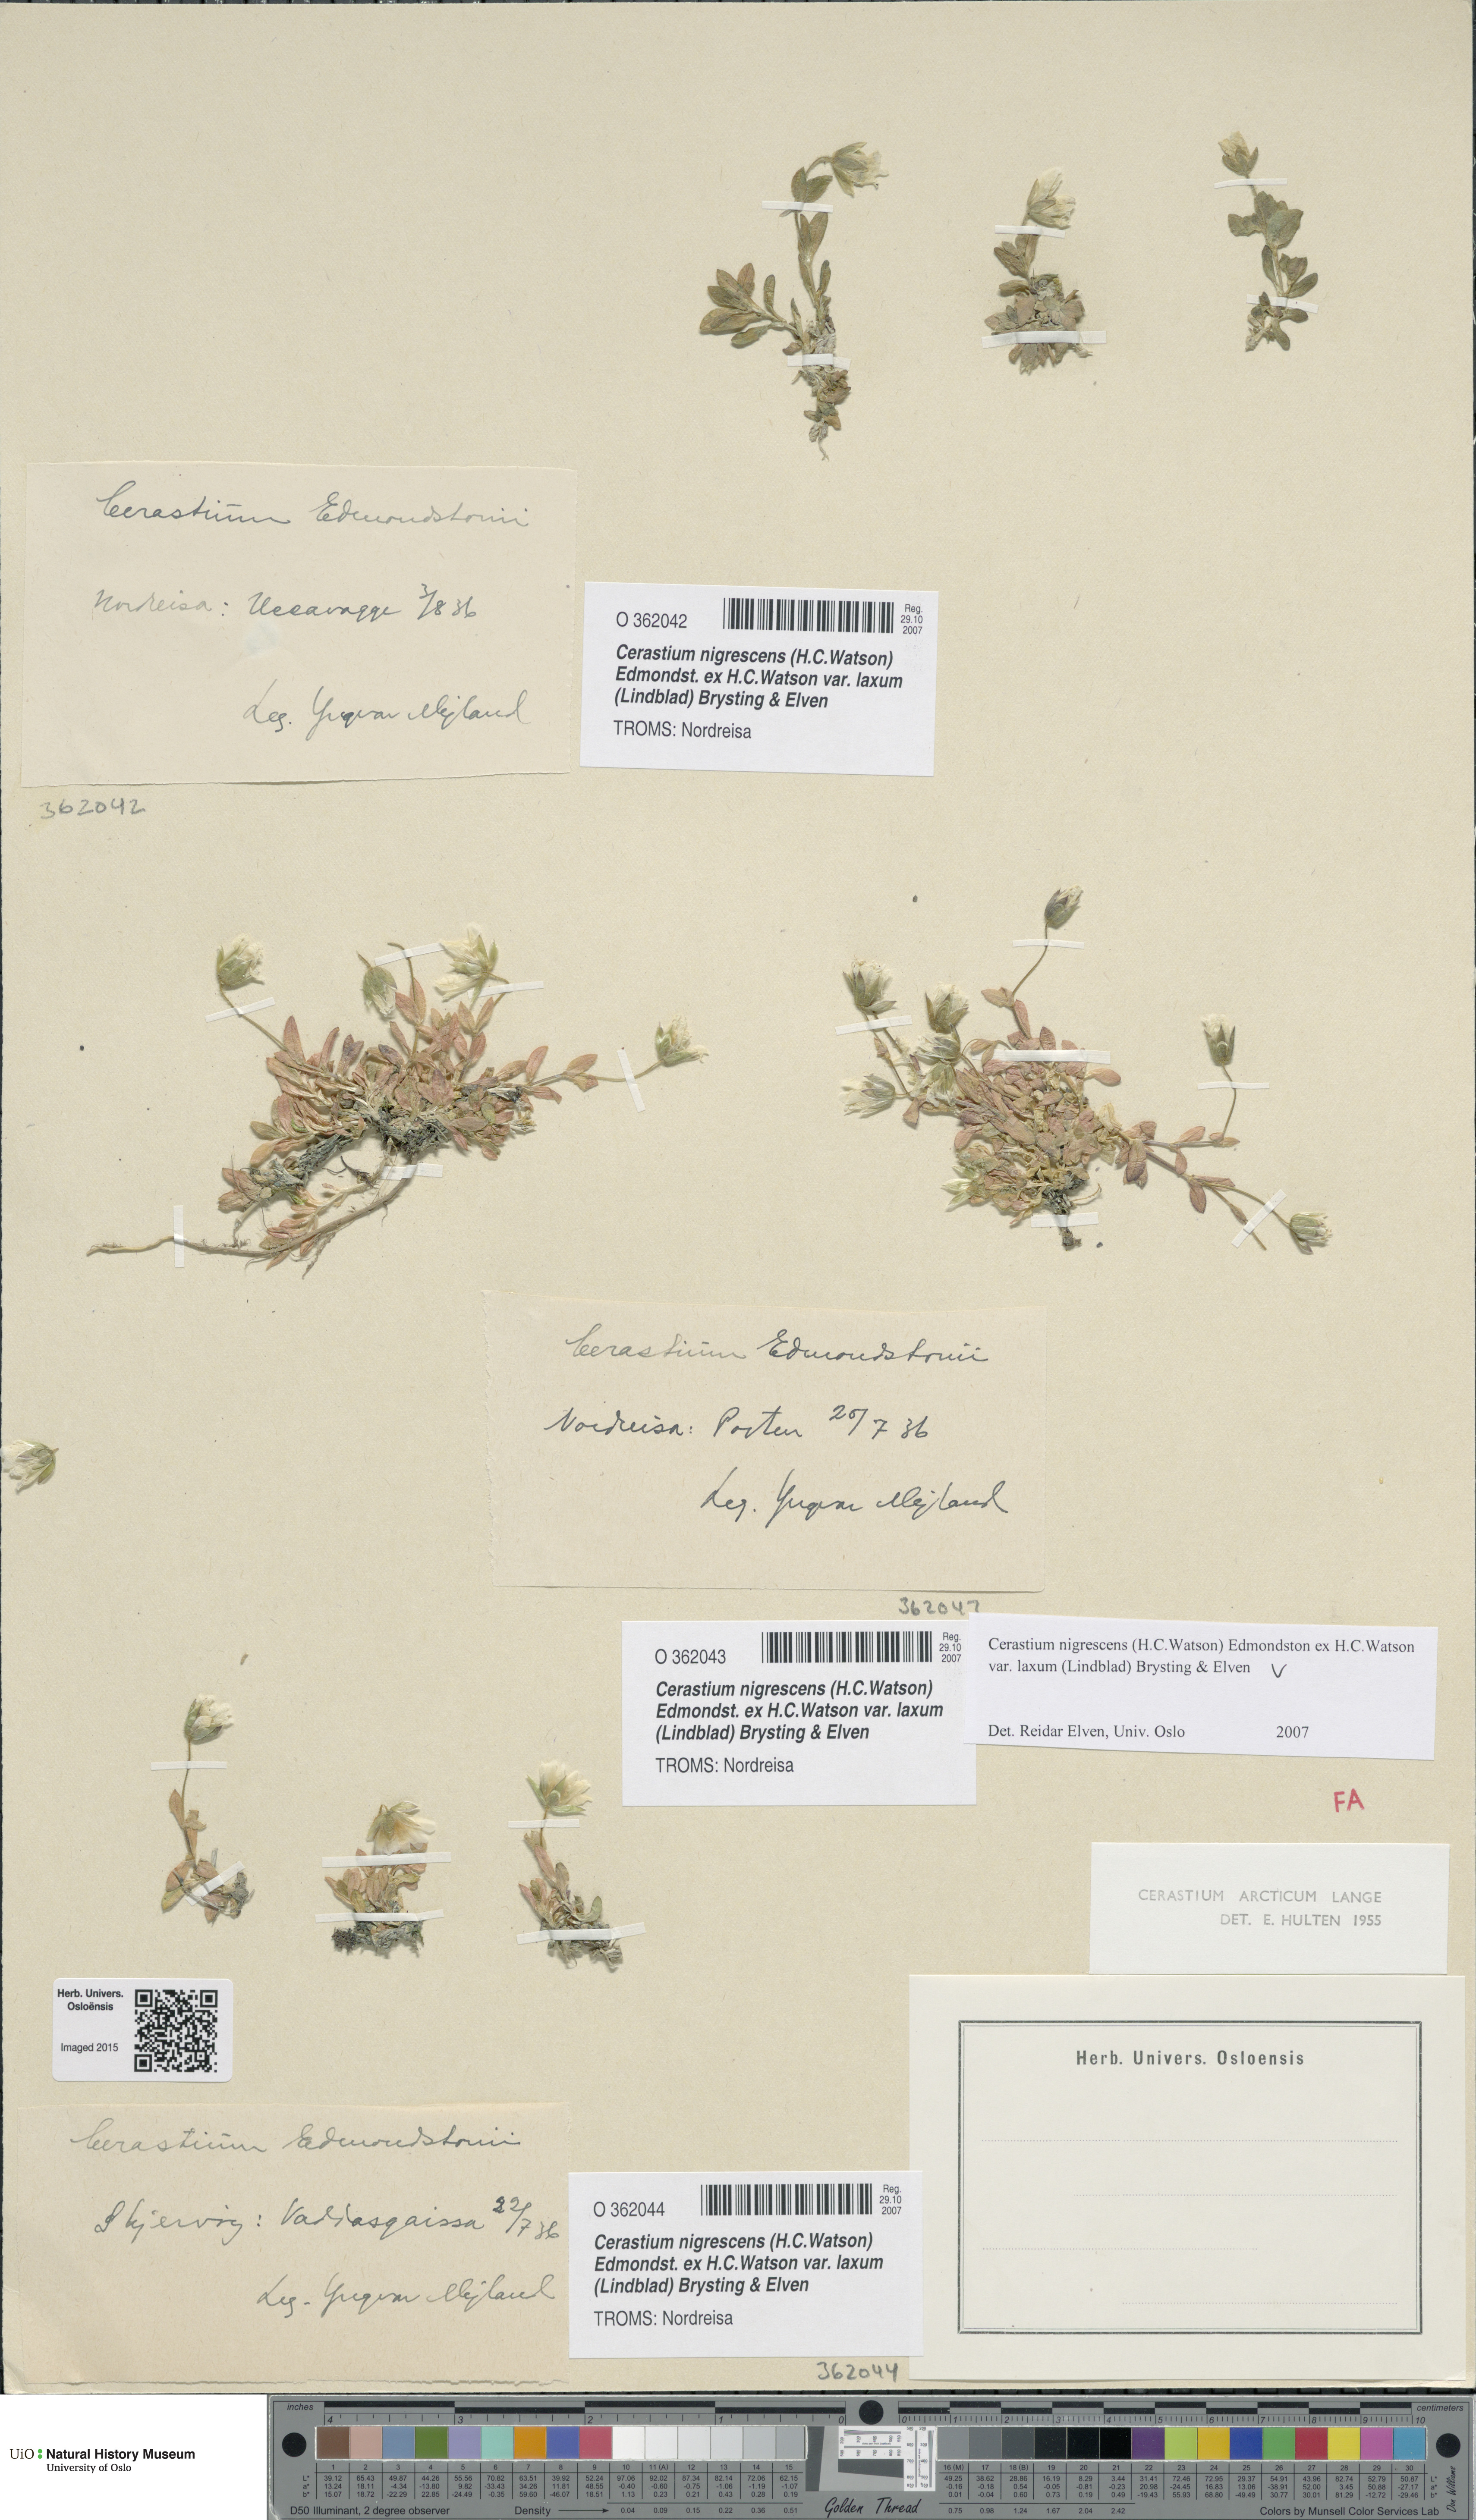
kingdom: Plantae
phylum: Tracheophyta
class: Magnoliopsida
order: Caryophyllales
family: Caryophyllaceae
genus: Cerastium
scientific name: Cerastium nigrescens
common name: Shetland mouse-ear
